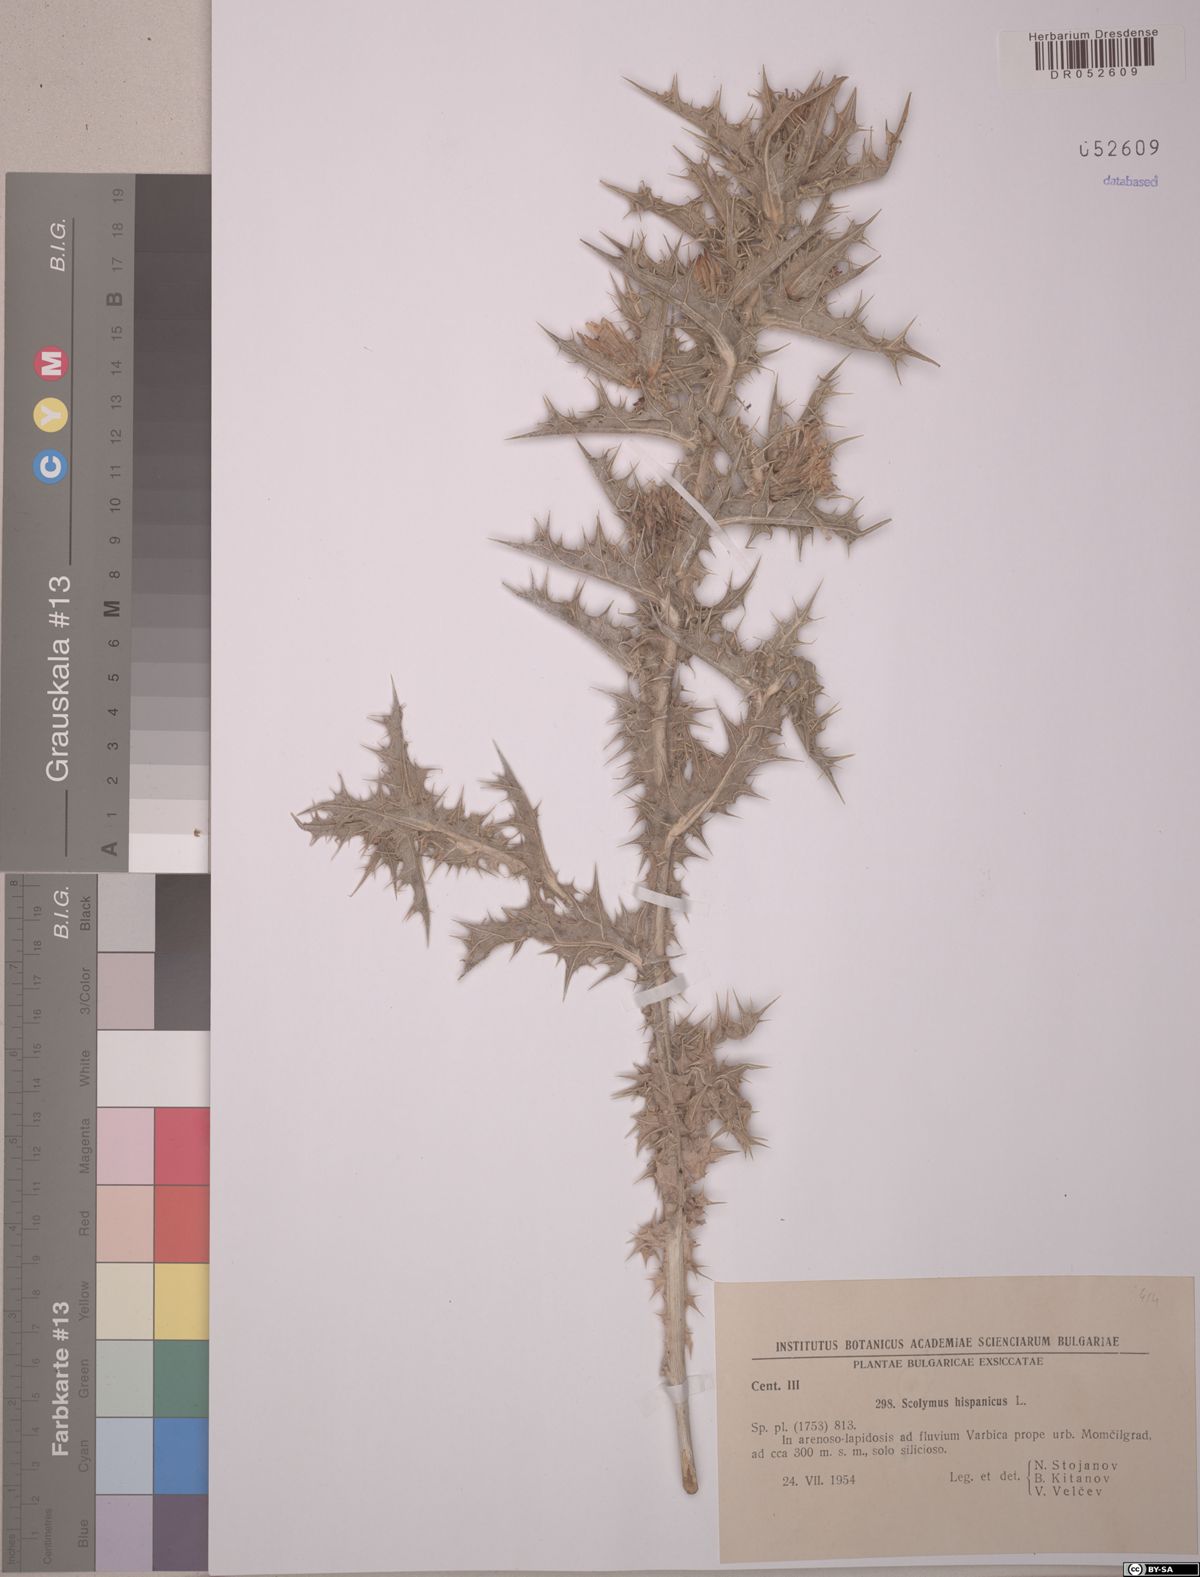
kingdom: Plantae
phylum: Tracheophyta
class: Magnoliopsida
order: Asterales
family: Asteraceae
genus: Scolymus
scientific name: Scolymus hispanicus
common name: Golden thistle
